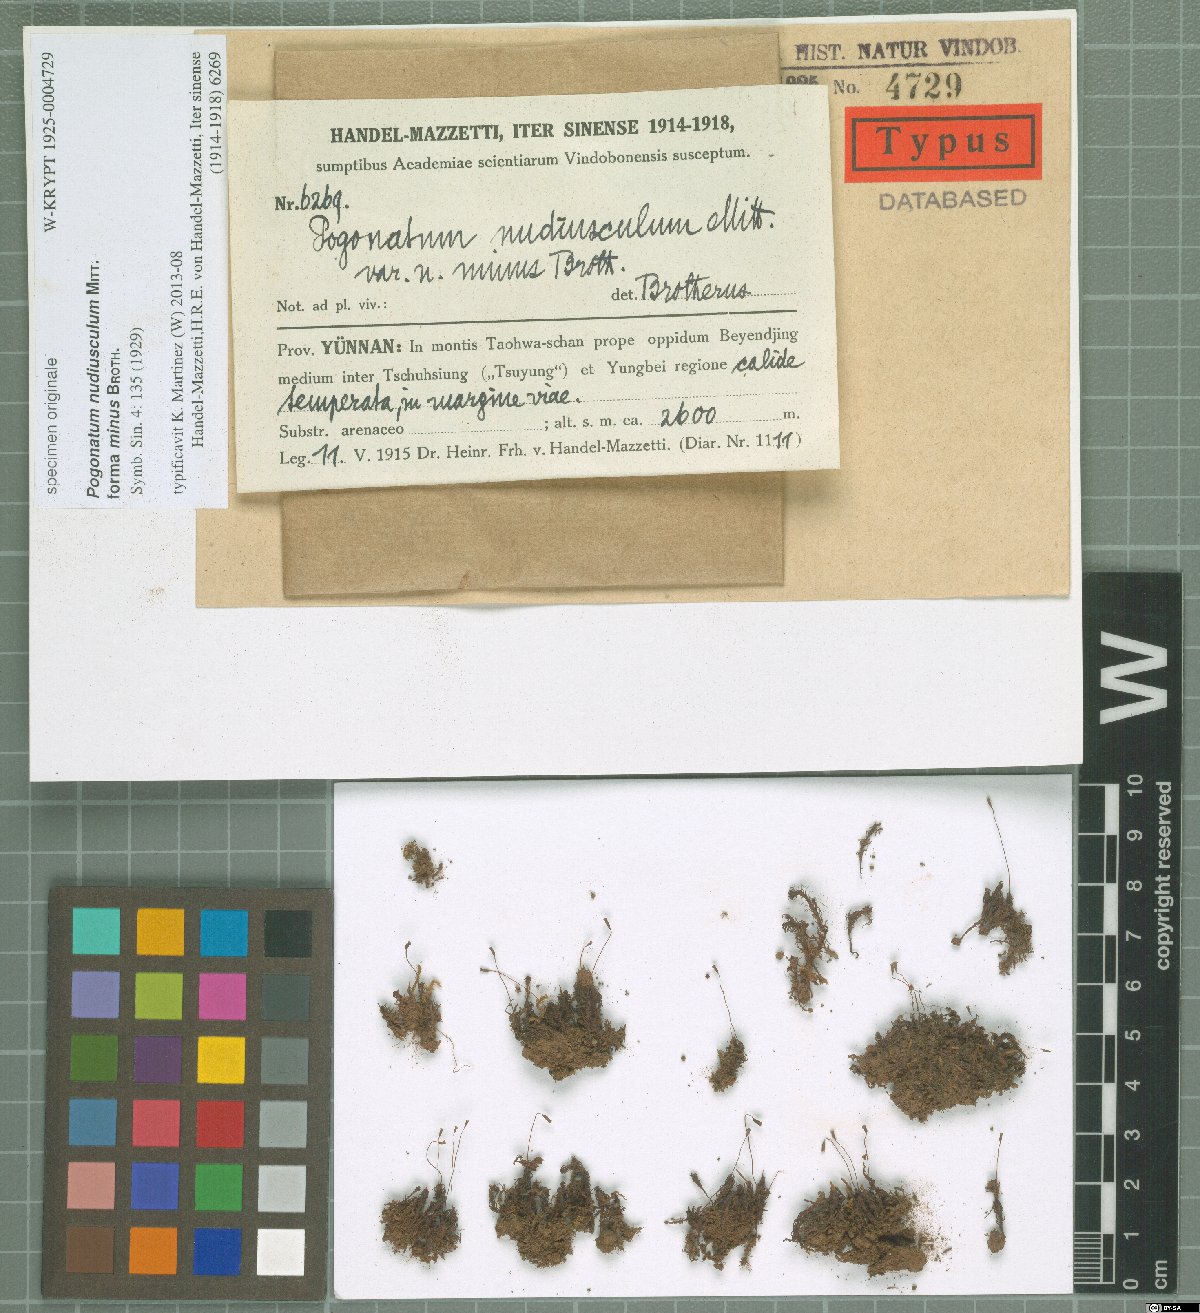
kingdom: Plantae
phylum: Bryophyta
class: Polytrichopsida
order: Polytrichales
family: Polytrichaceae
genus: Pogonatum
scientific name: Pogonatum nudiusculum
